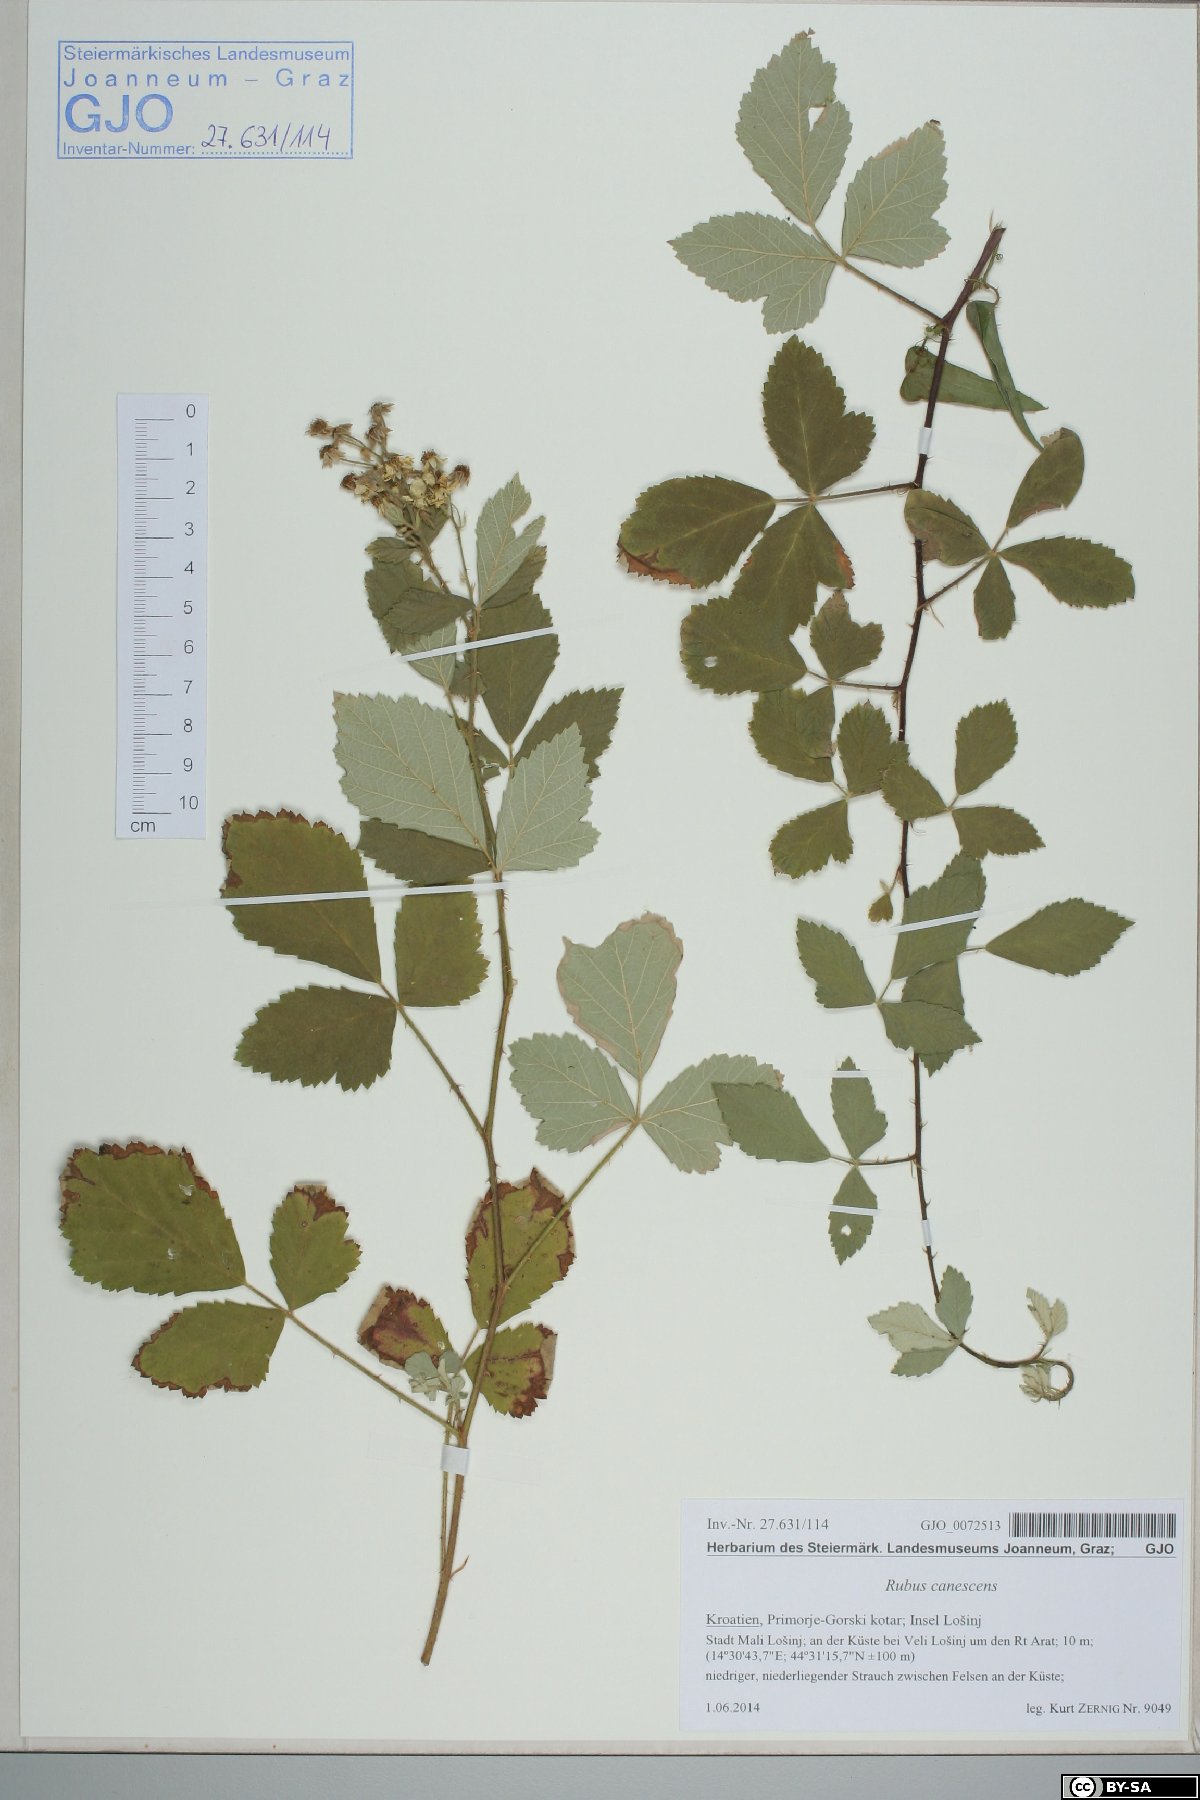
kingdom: Plantae
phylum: Tracheophyta
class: Magnoliopsida
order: Rosales
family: Rosaceae
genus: Rubus
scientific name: Rubus canescens
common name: Wooly blackberry
